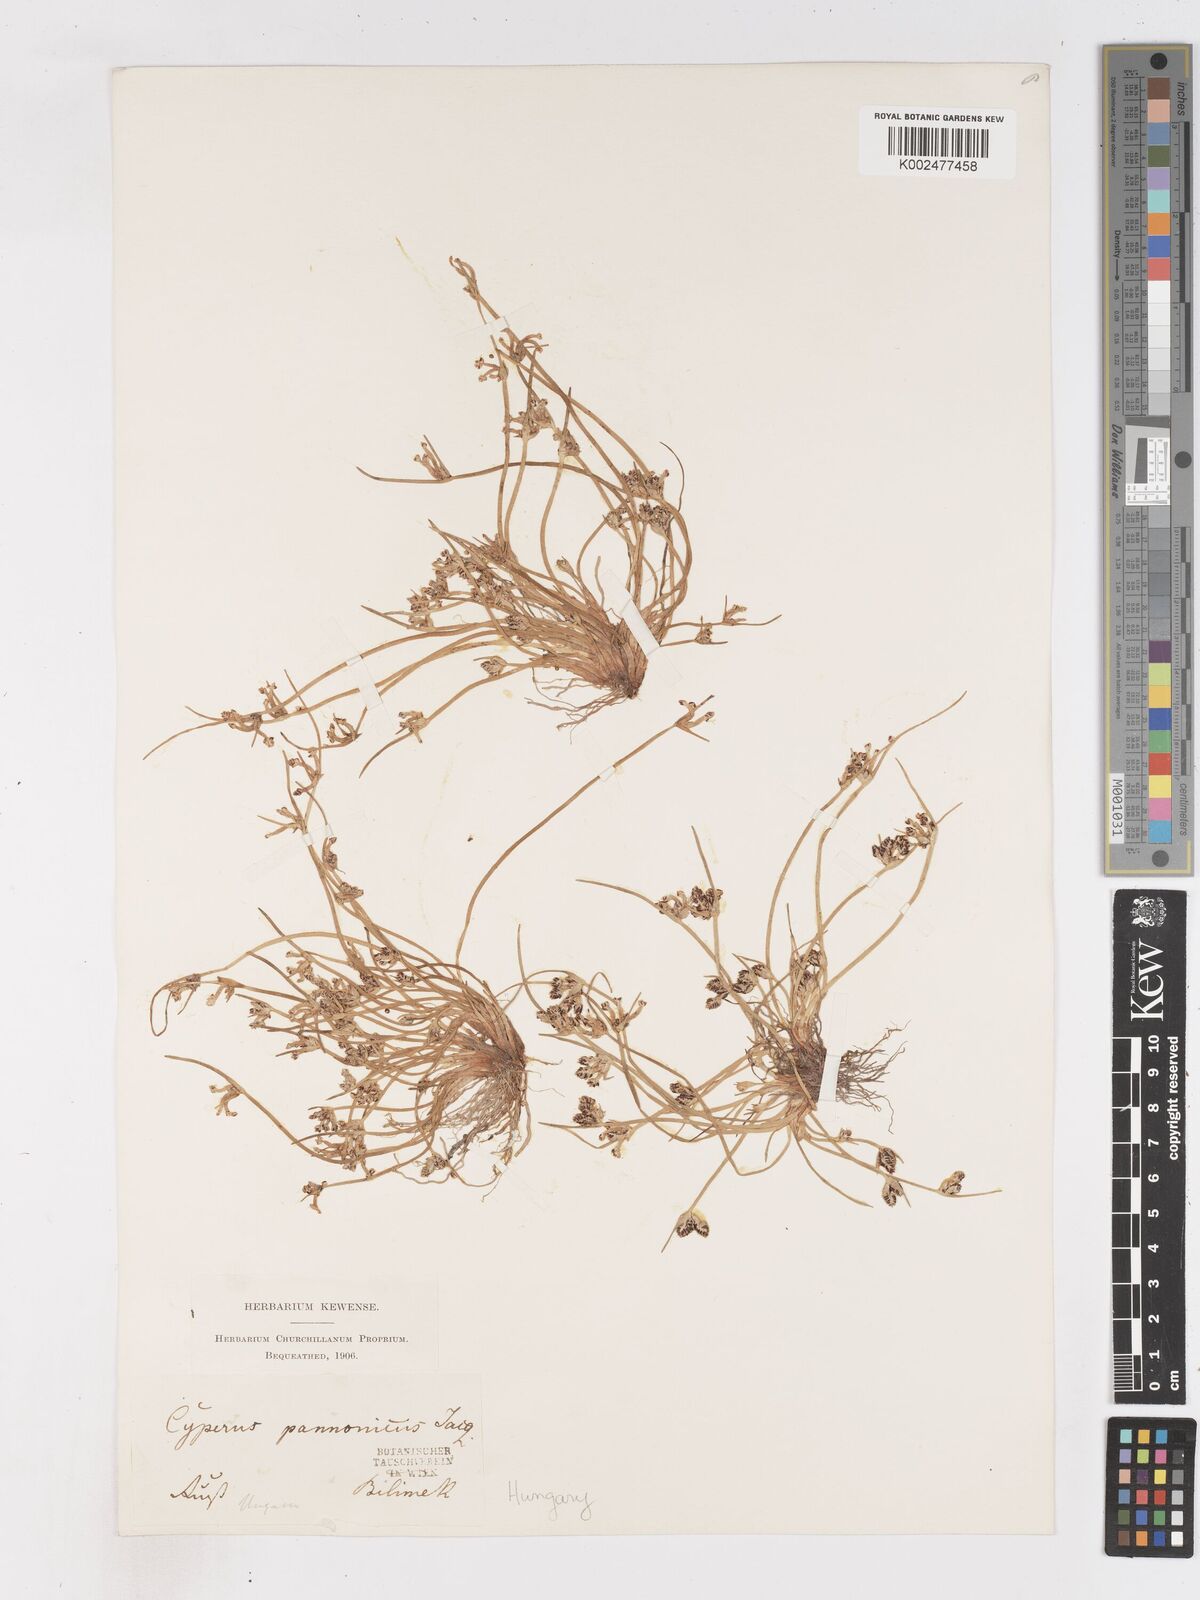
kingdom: Plantae
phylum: Tracheophyta
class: Liliopsida
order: Poales
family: Cyperaceae
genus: Cyperus
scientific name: Cyperus pannonicus
